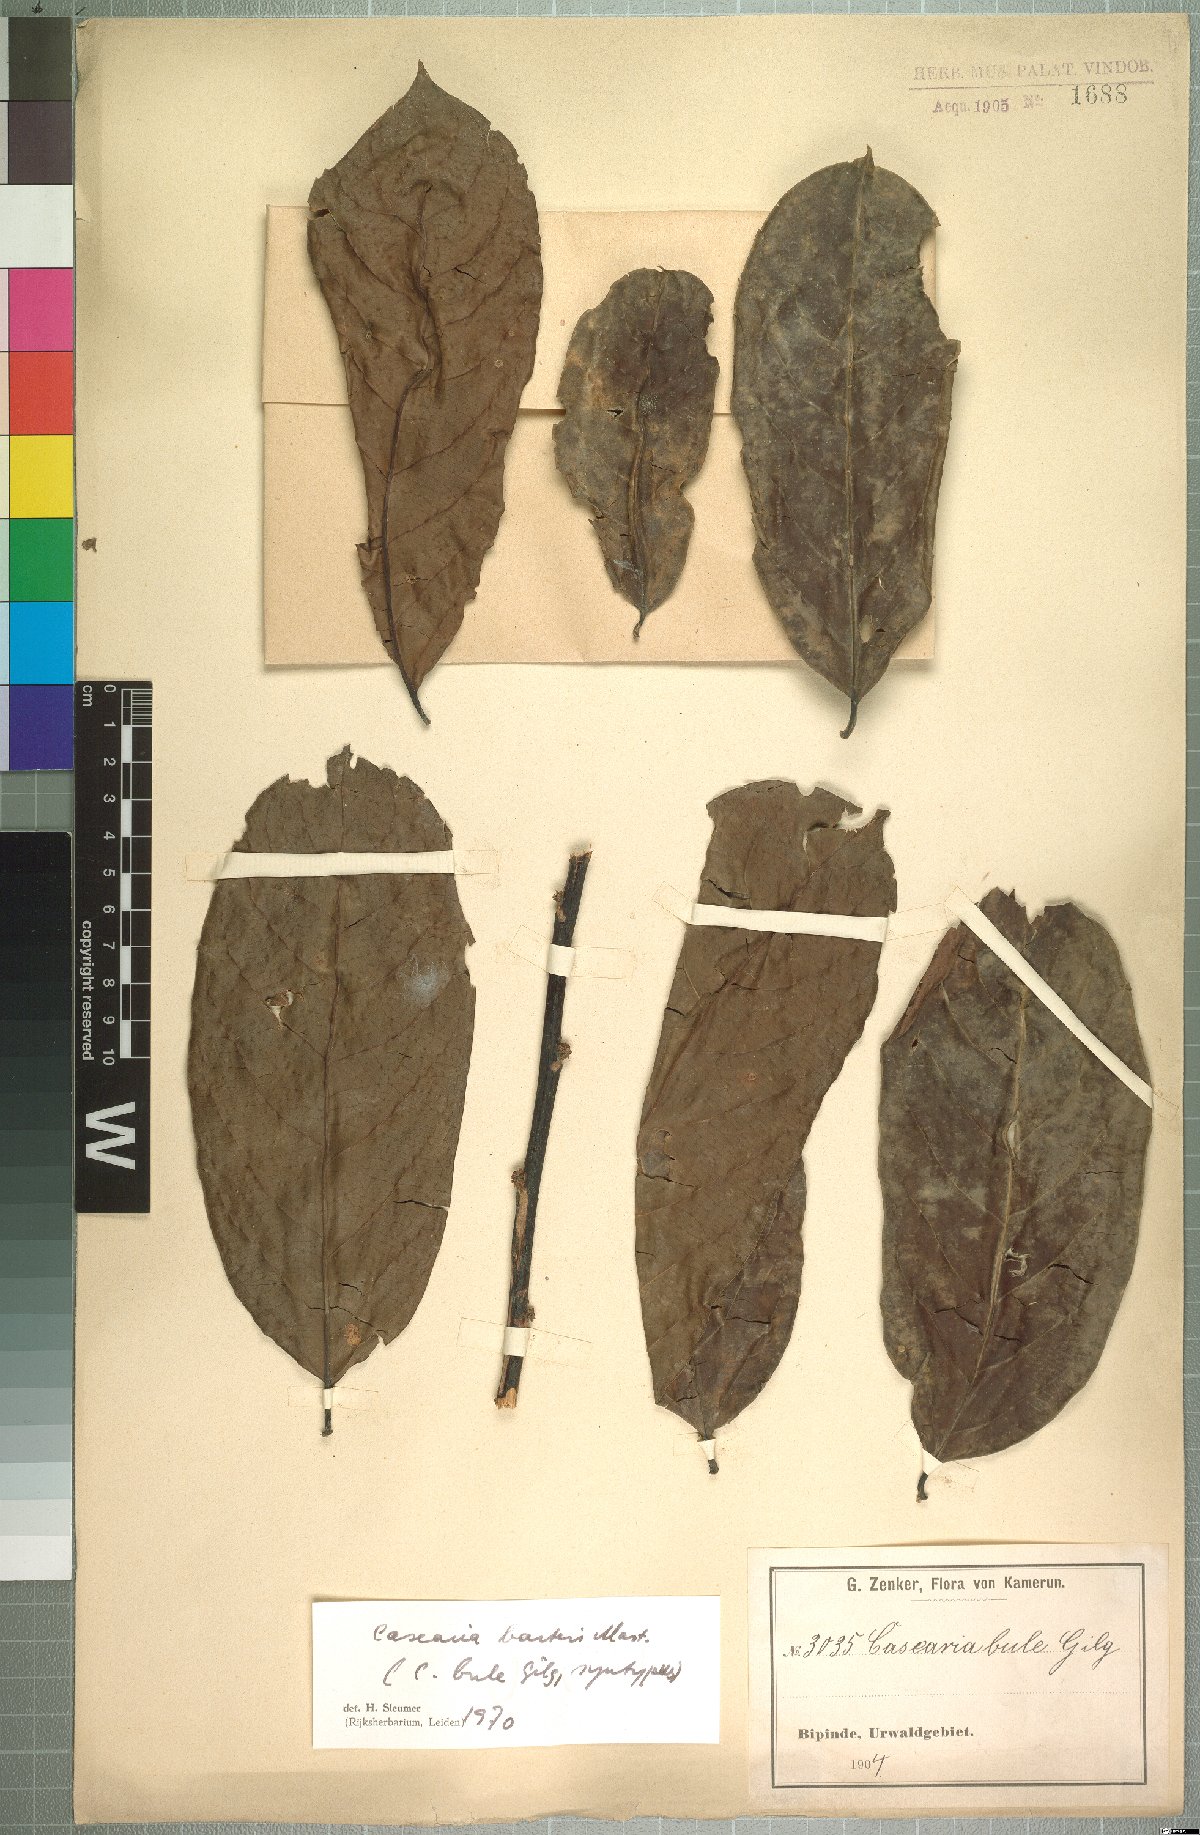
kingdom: Plantae
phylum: Tracheophyta
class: Magnoliopsida
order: Malpighiales
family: Salicaceae
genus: Casearia
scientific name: Casearia barteri
